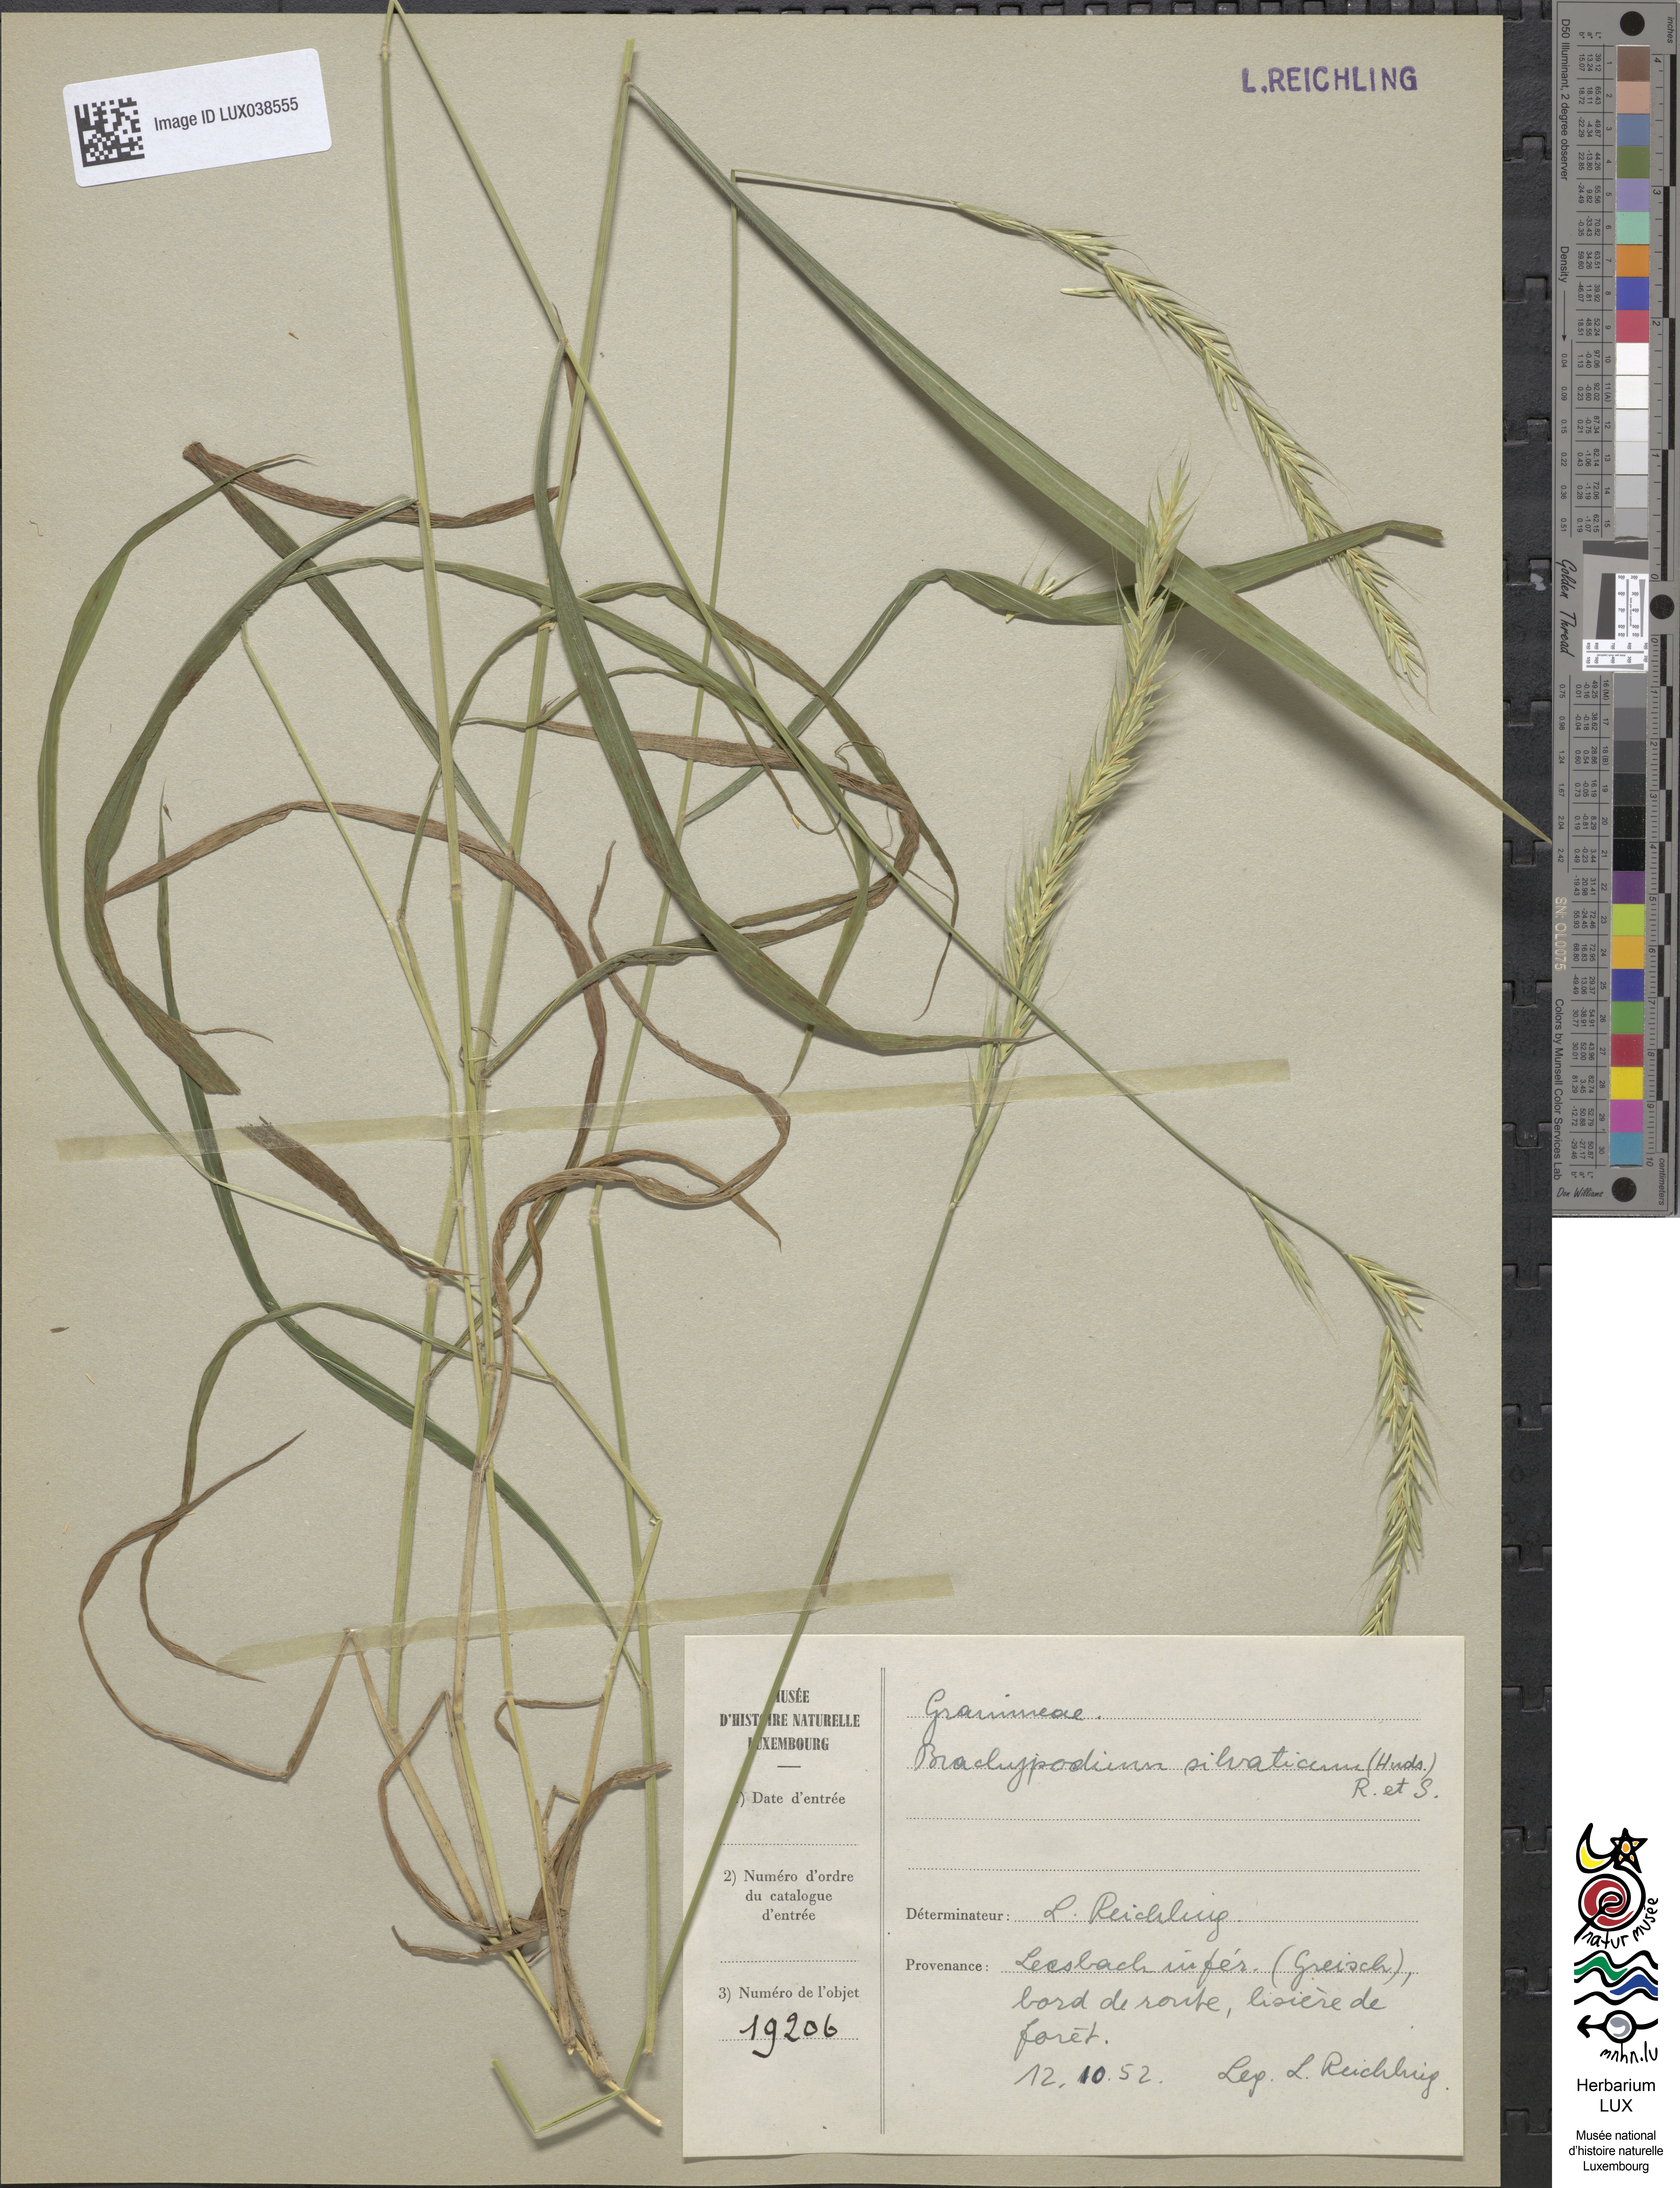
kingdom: Plantae
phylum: Tracheophyta
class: Liliopsida
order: Poales
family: Poaceae
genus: Brachypodium
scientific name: Brachypodium sylvaticum
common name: False-brome
